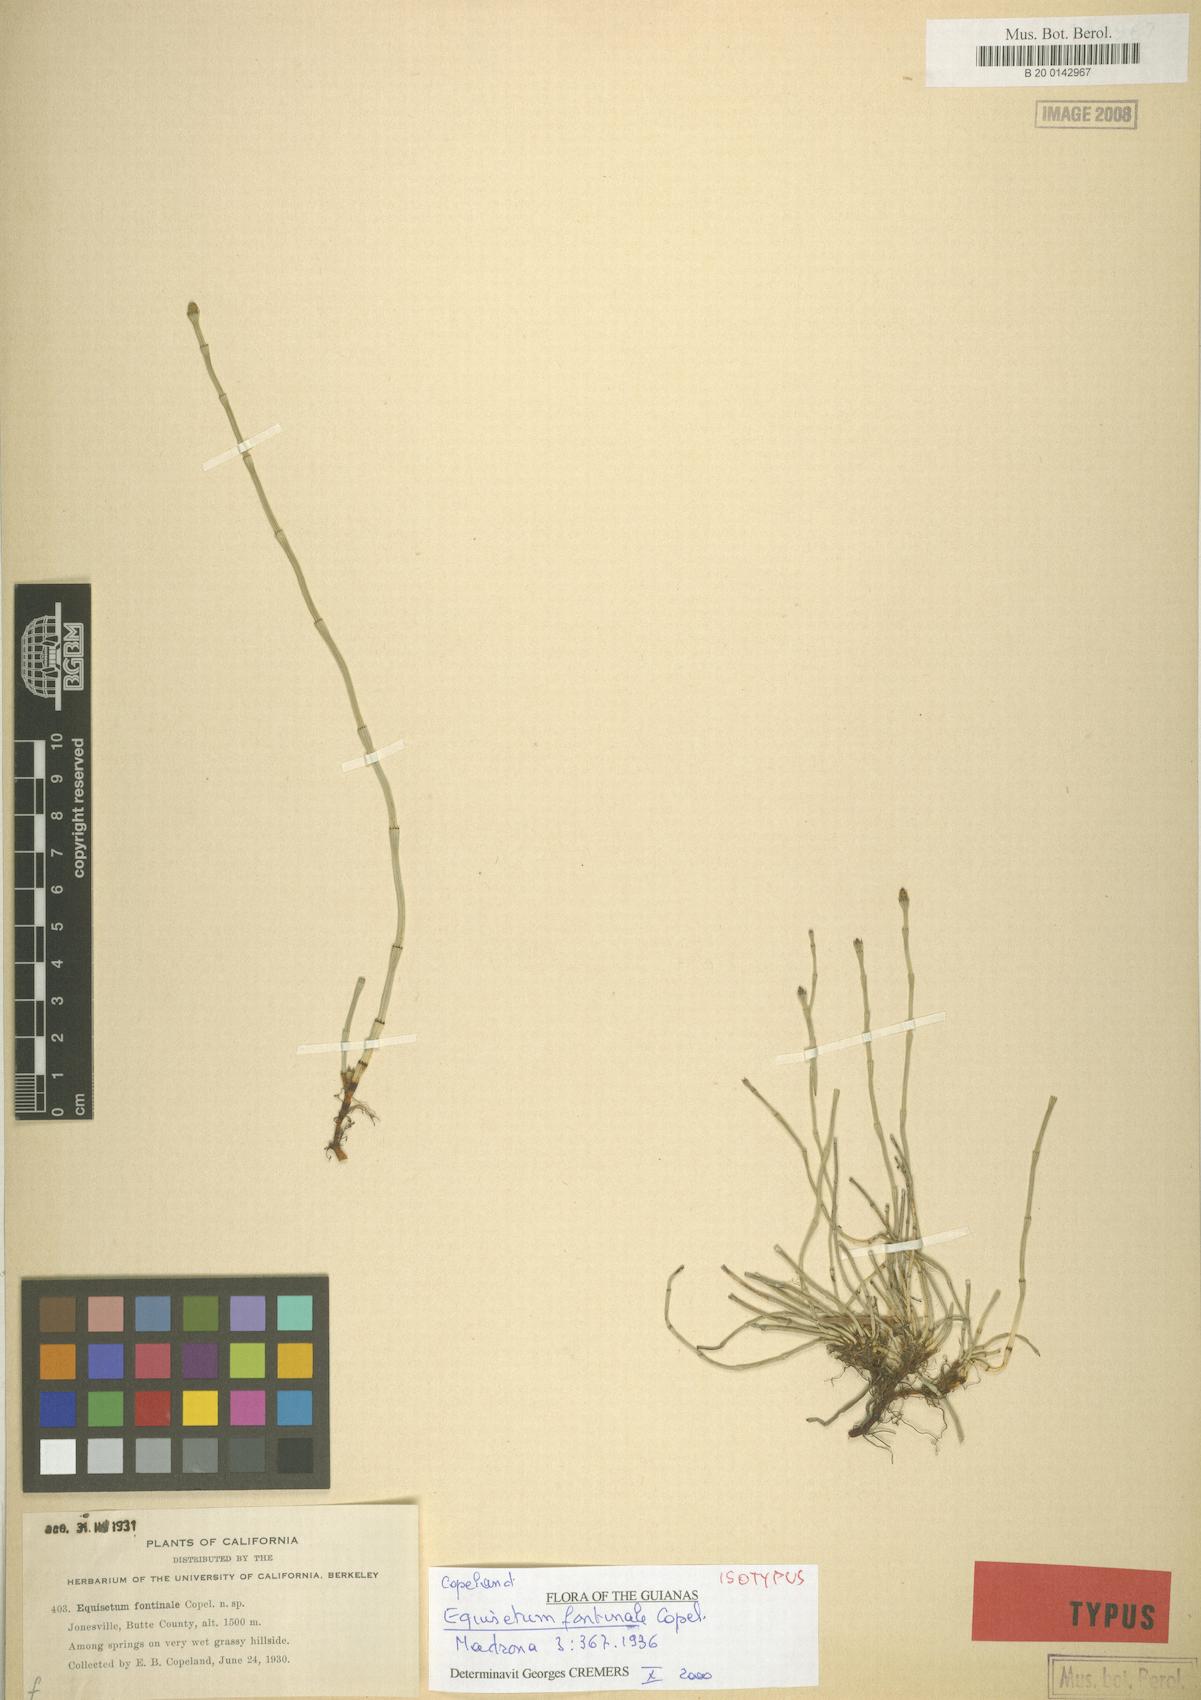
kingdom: Plantae
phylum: Tracheophyta
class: Polypodiopsida
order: Equisetales
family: Equisetaceae
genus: Equisetum
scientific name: Equisetum laevigatum
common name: Smooth scouring-rush
